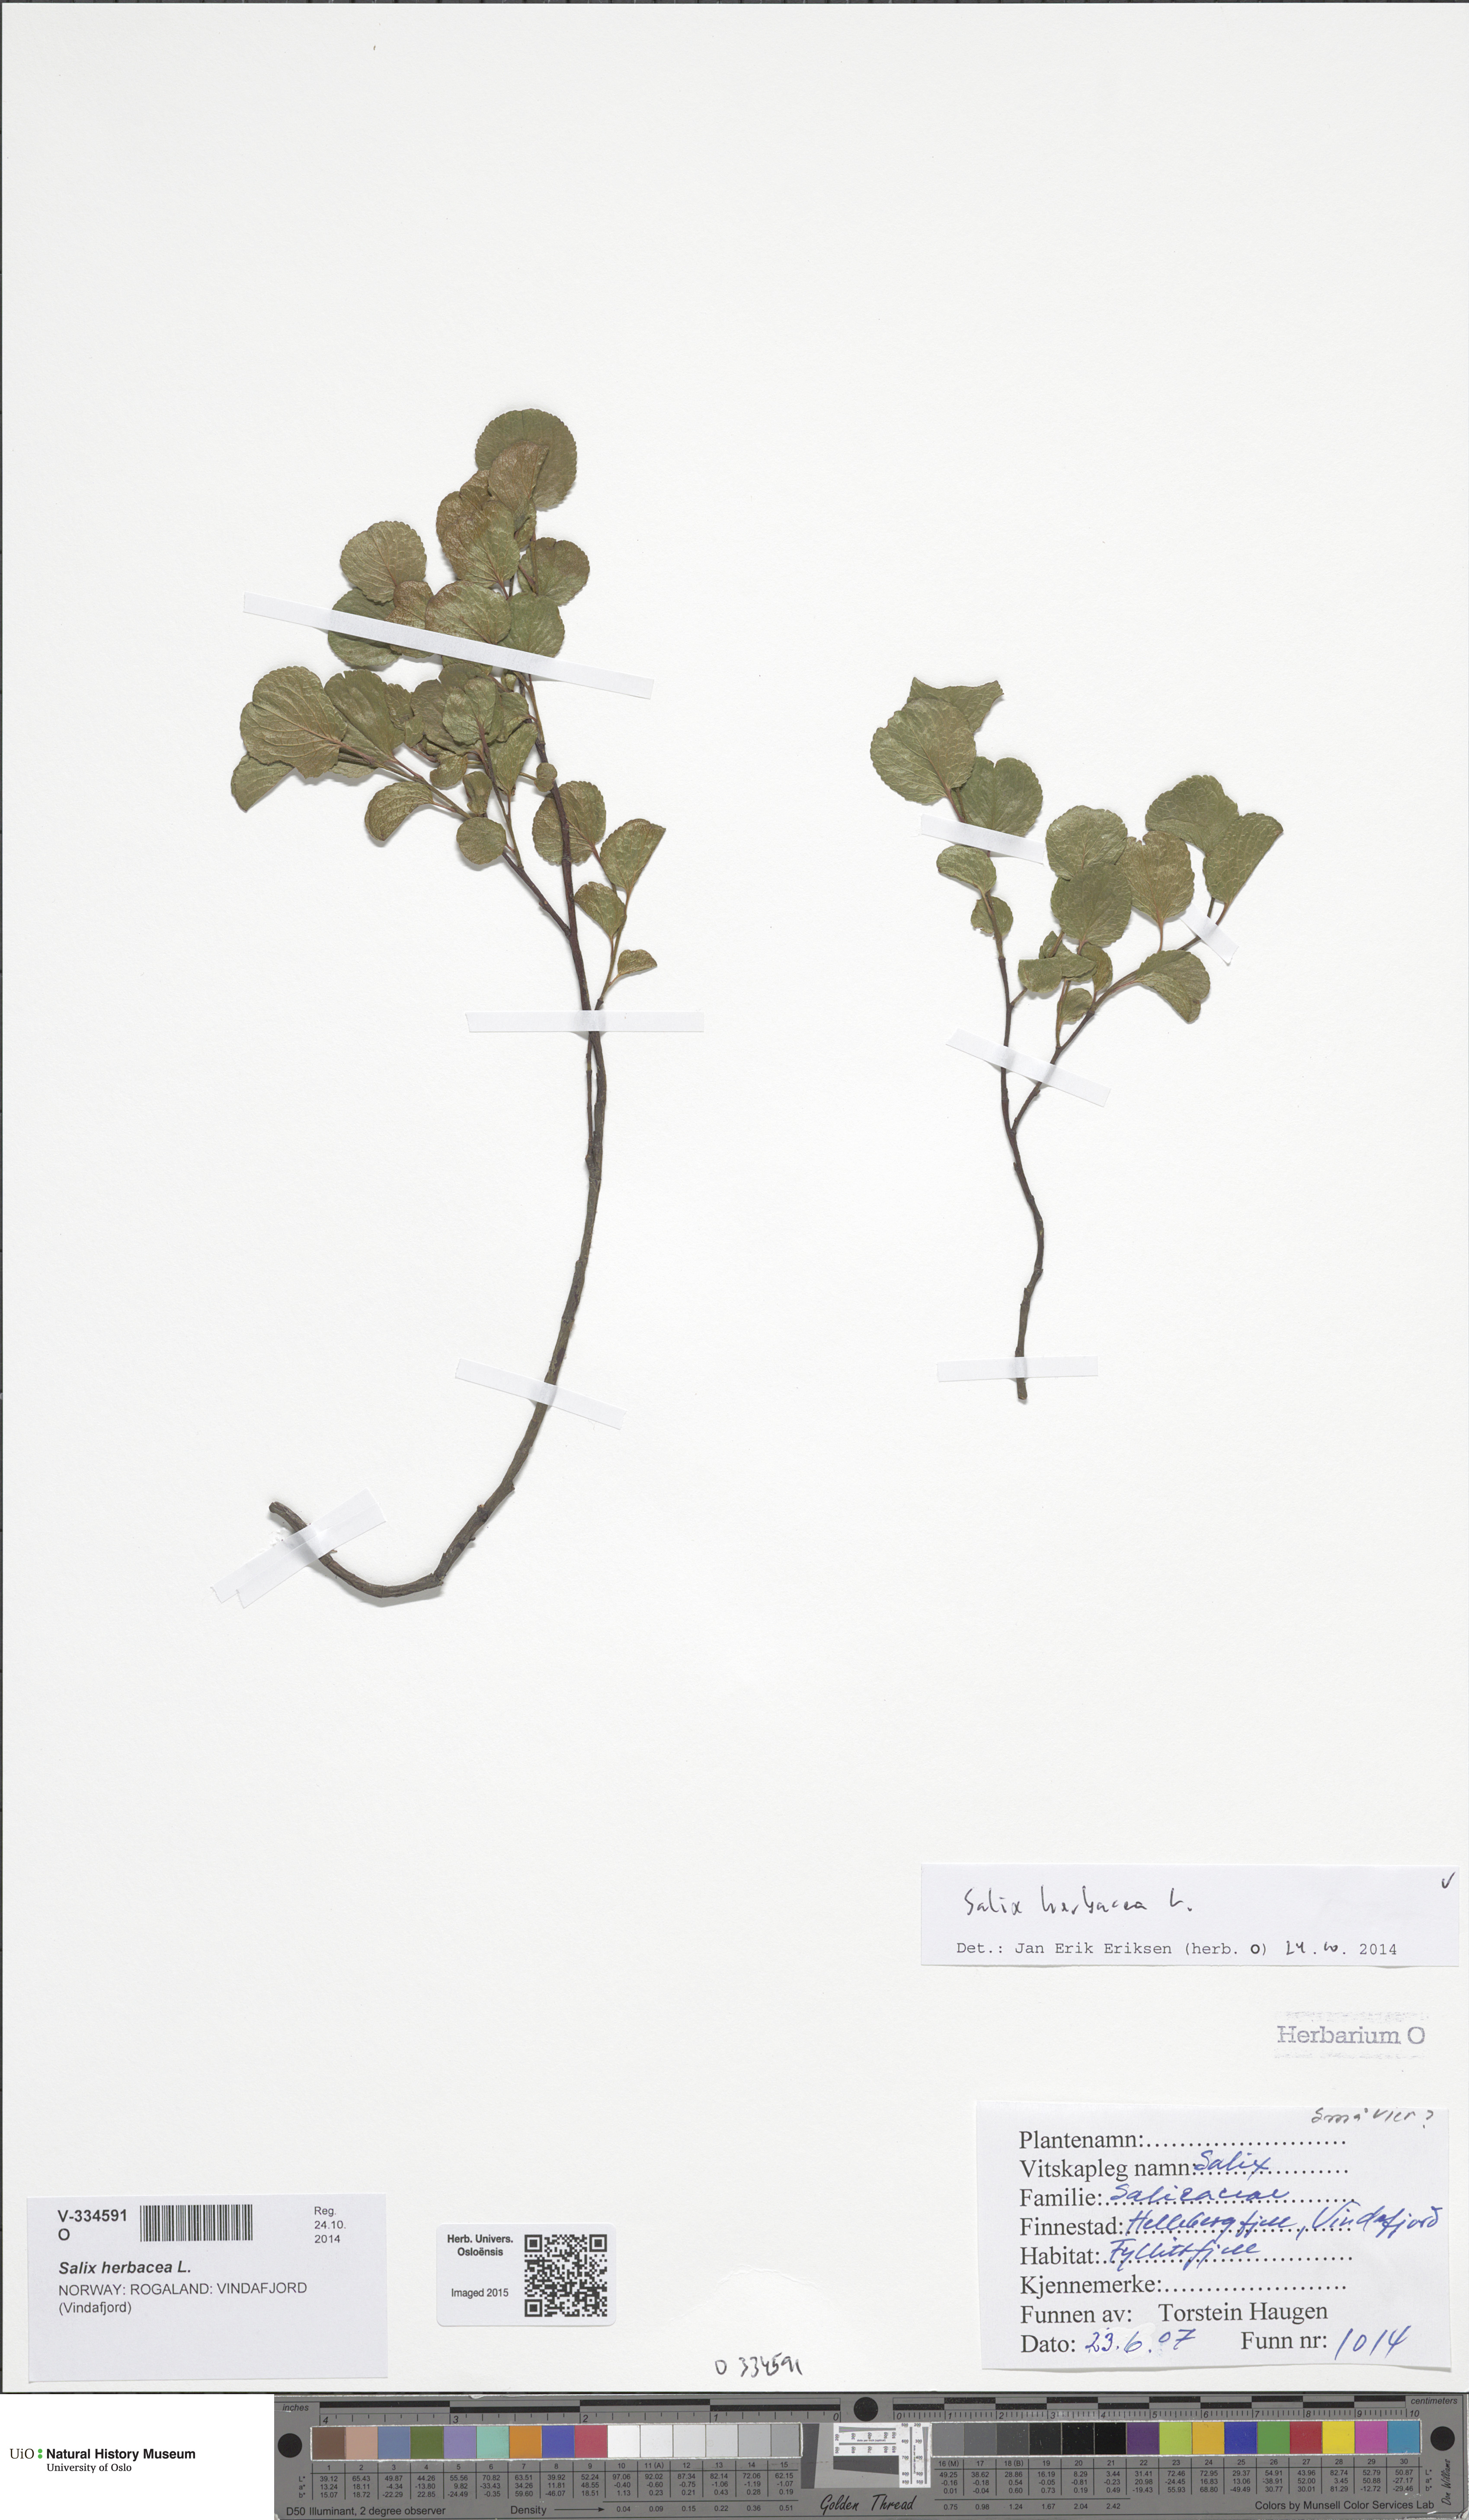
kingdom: Plantae
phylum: Tracheophyta
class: Magnoliopsida
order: Malpighiales
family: Salicaceae
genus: Salix
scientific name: Salix herbacea
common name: Dwarf willow
